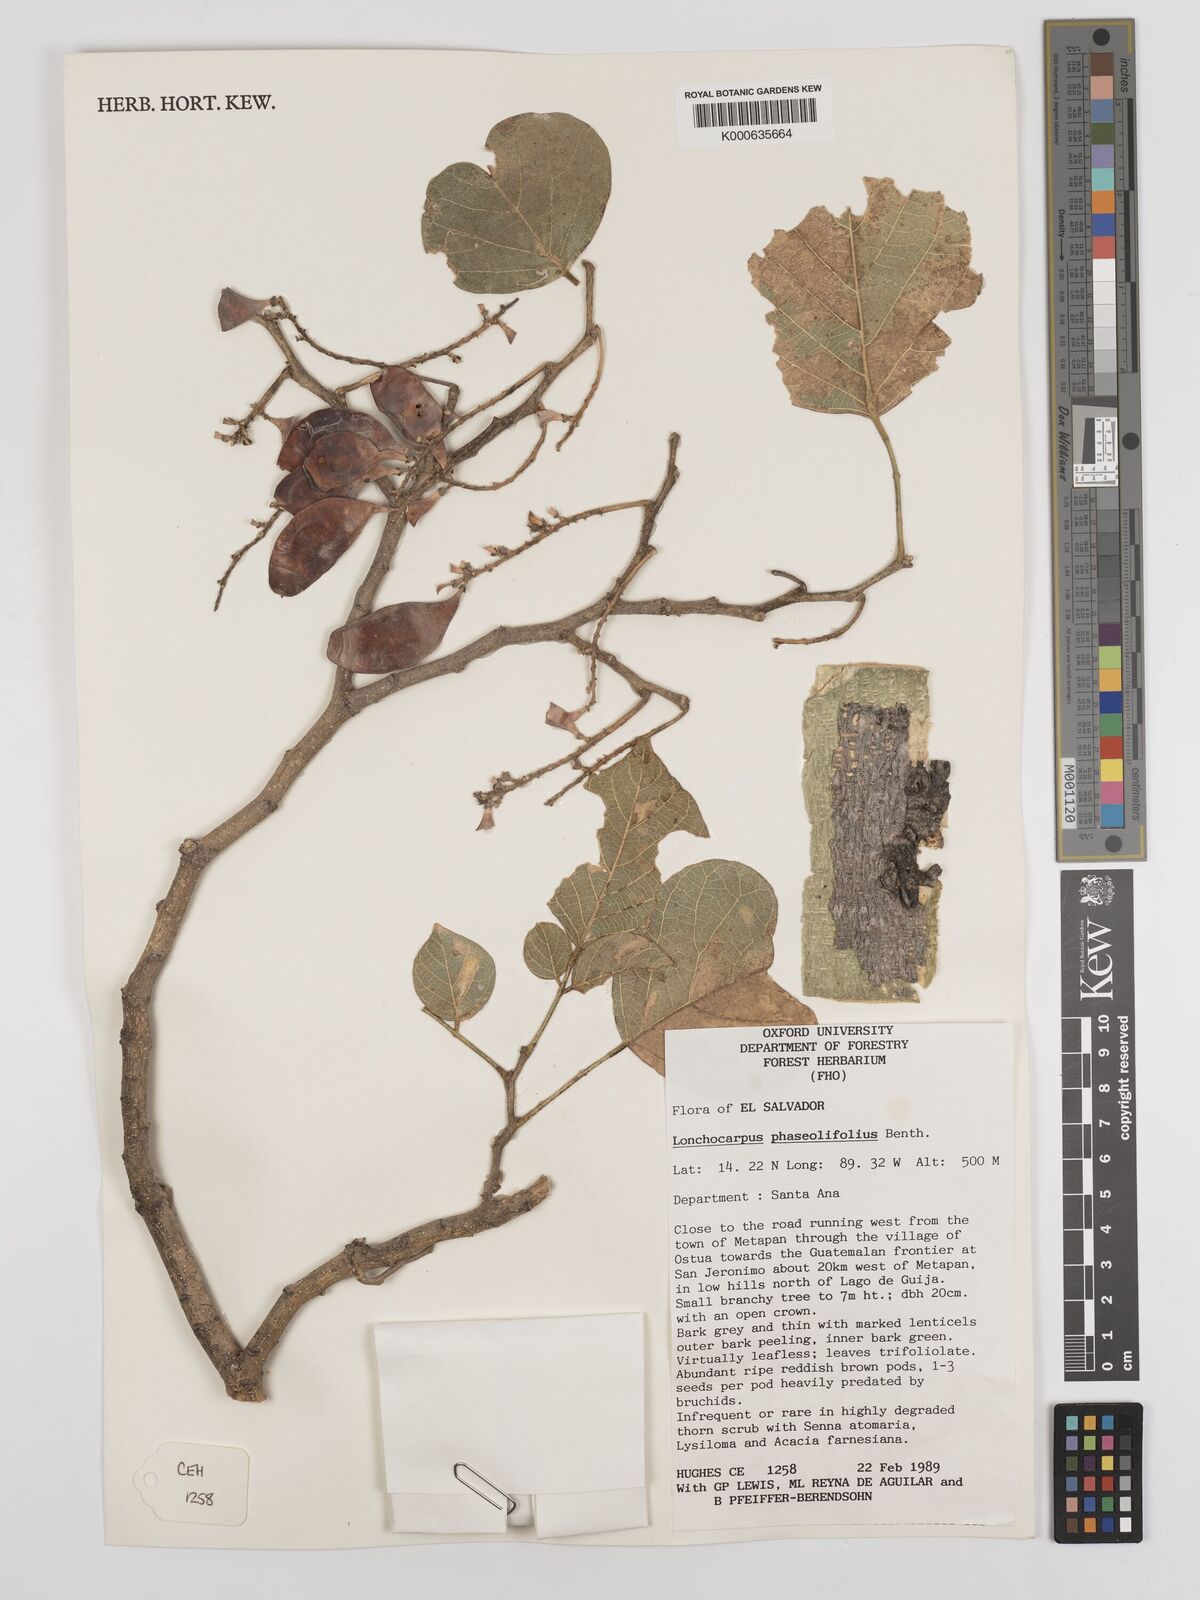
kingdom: Plantae
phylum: Tracheophyta
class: Magnoliopsida
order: Fabales
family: Fabaceae
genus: Lonchocarpus
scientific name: Lonchocarpus phaseolifolius
